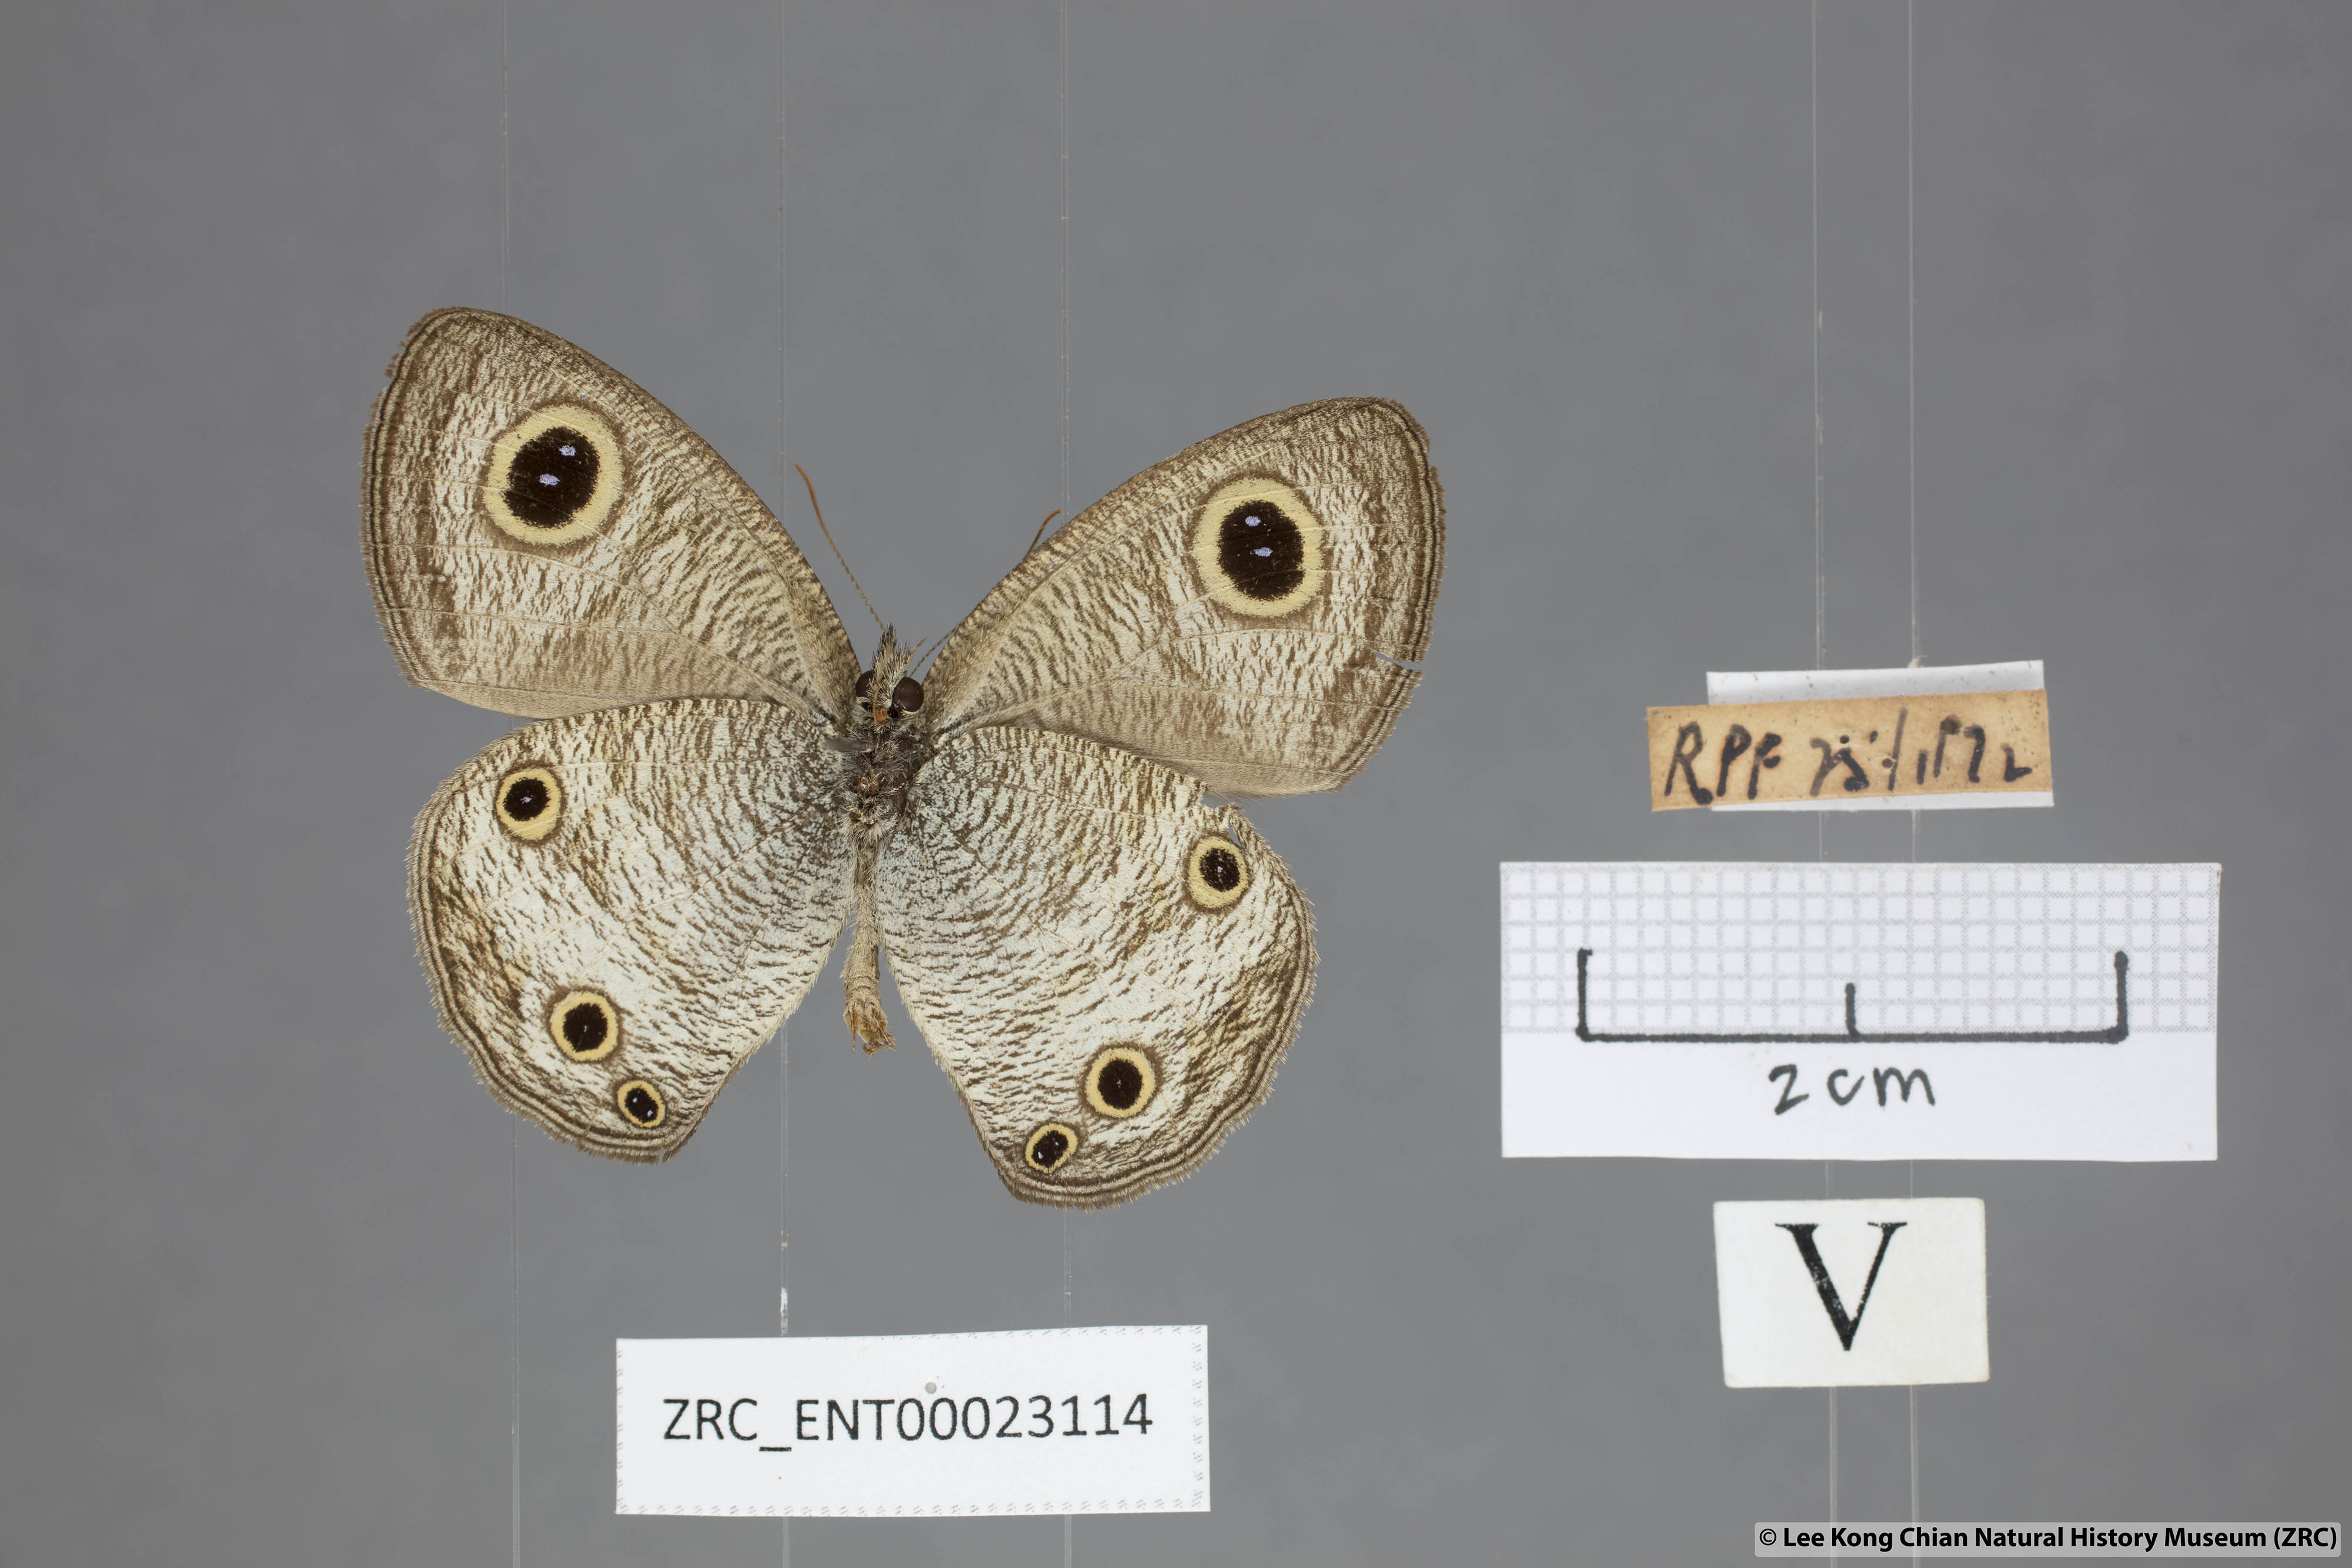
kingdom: Animalia
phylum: Arthropoda
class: Insecta
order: Lepidoptera
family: Nymphalidae
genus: Ypthima
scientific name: Ypthima pandocus
